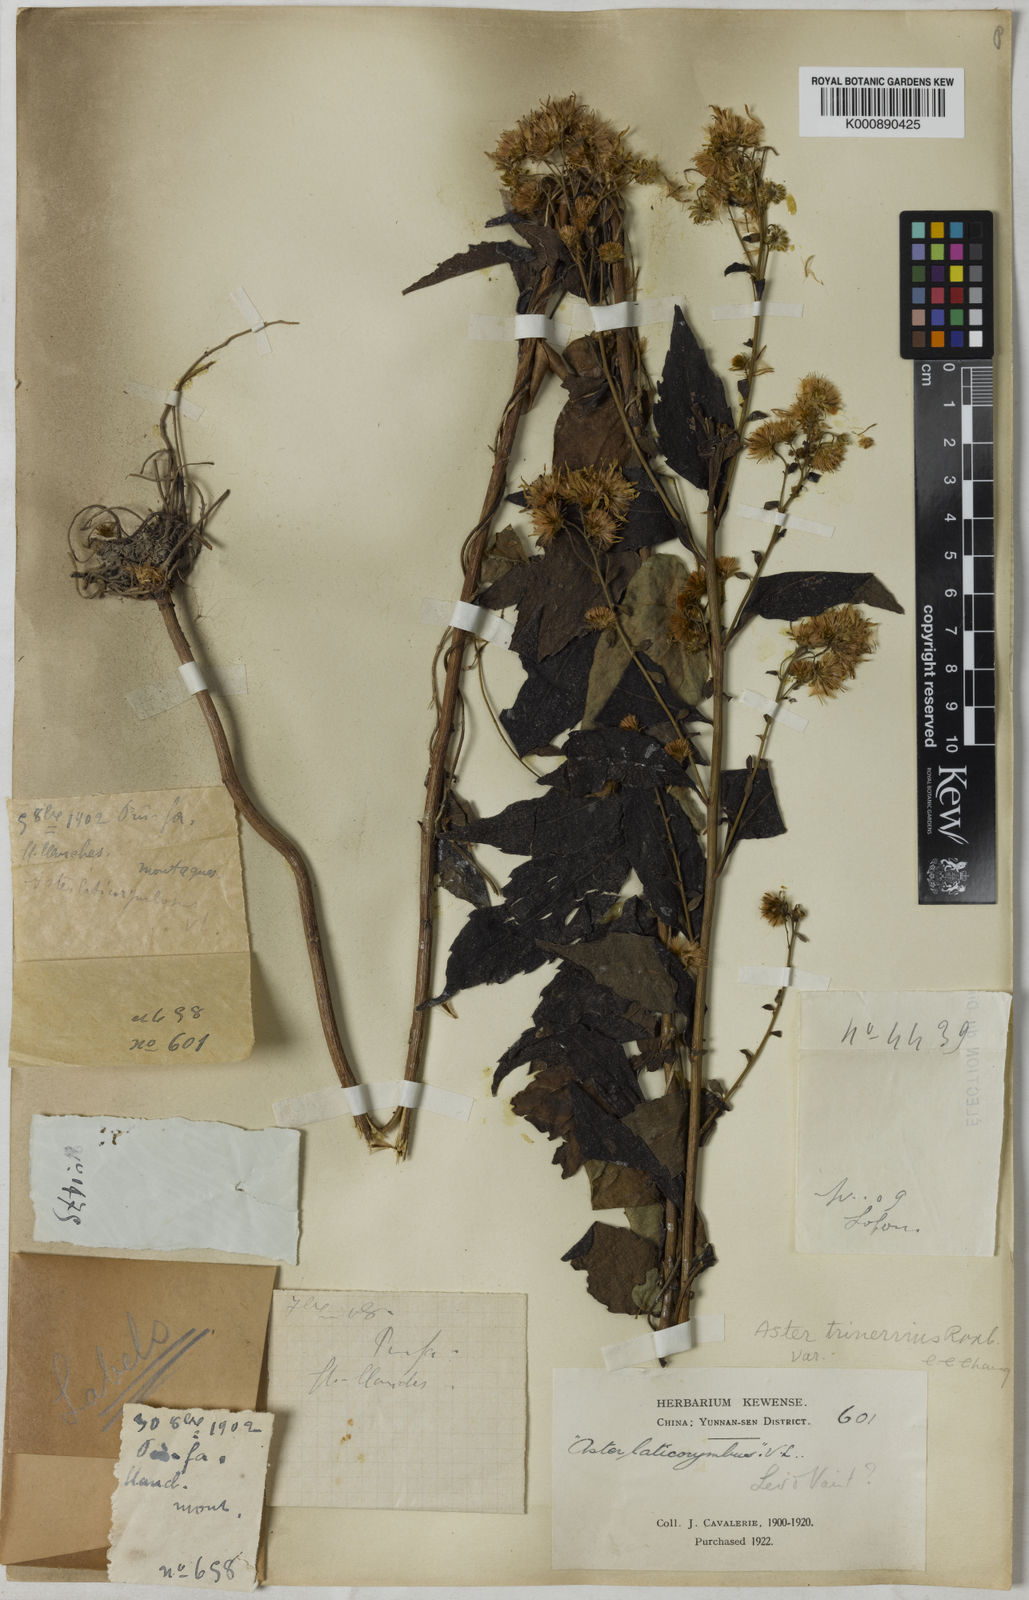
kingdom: Plantae
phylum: Tracheophyta
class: Magnoliopsida
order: Asterales
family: Asteraceae
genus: Aster
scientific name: Aster
